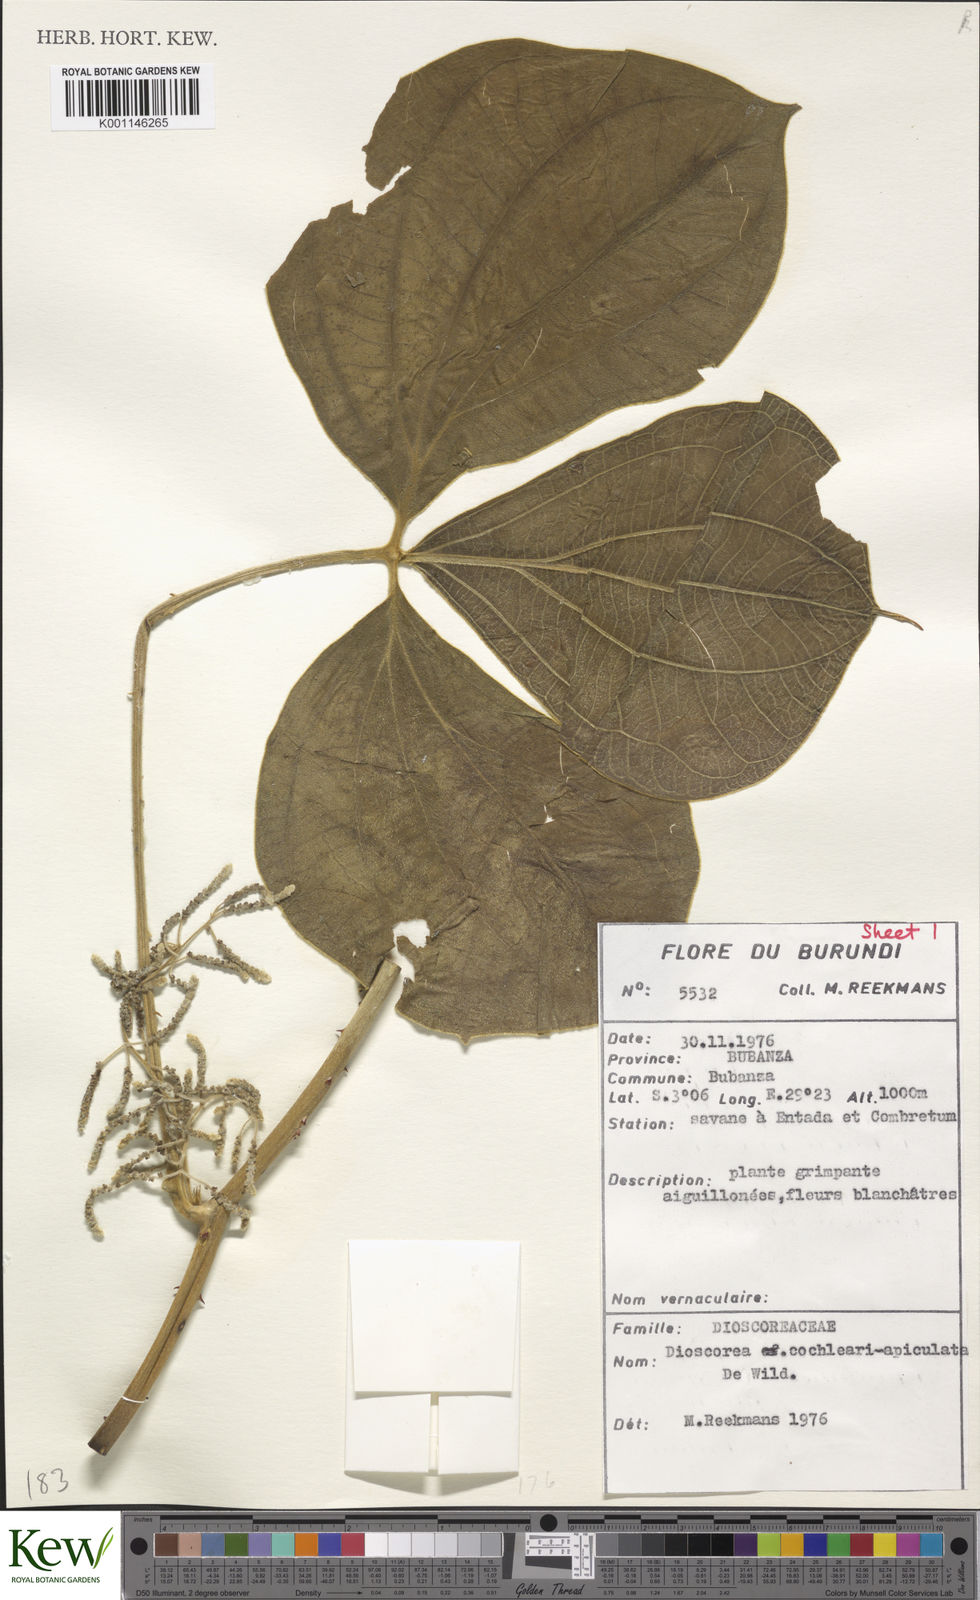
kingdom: Plantae
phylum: Tracheophyta
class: Liliopsida
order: Dioscoreales
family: Dioscoreaceae
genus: Dioscorea
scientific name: Dioscorea cochleariapiculata
